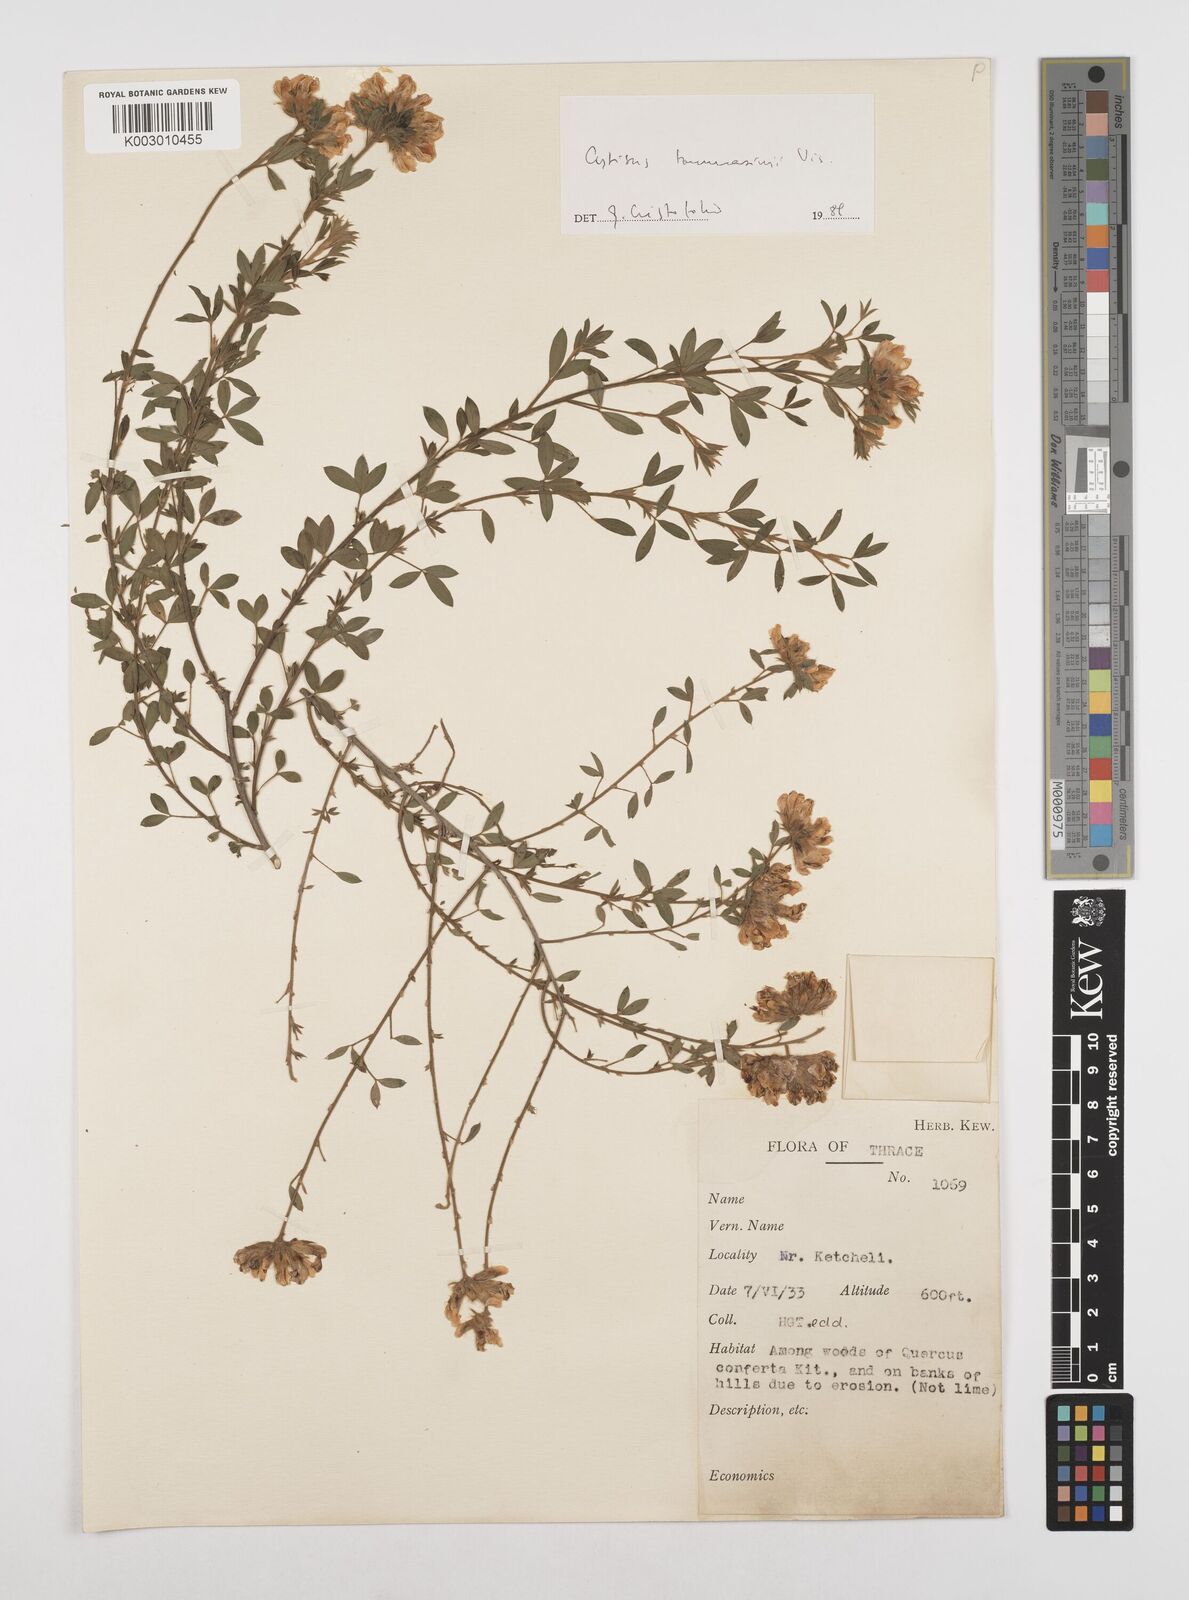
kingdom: Plantae
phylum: Tracheophyta
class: Magnoliopsida
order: Fabales
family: Fabaceae
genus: Chamaecytisus
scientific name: Chamaecytisus tommasinii
